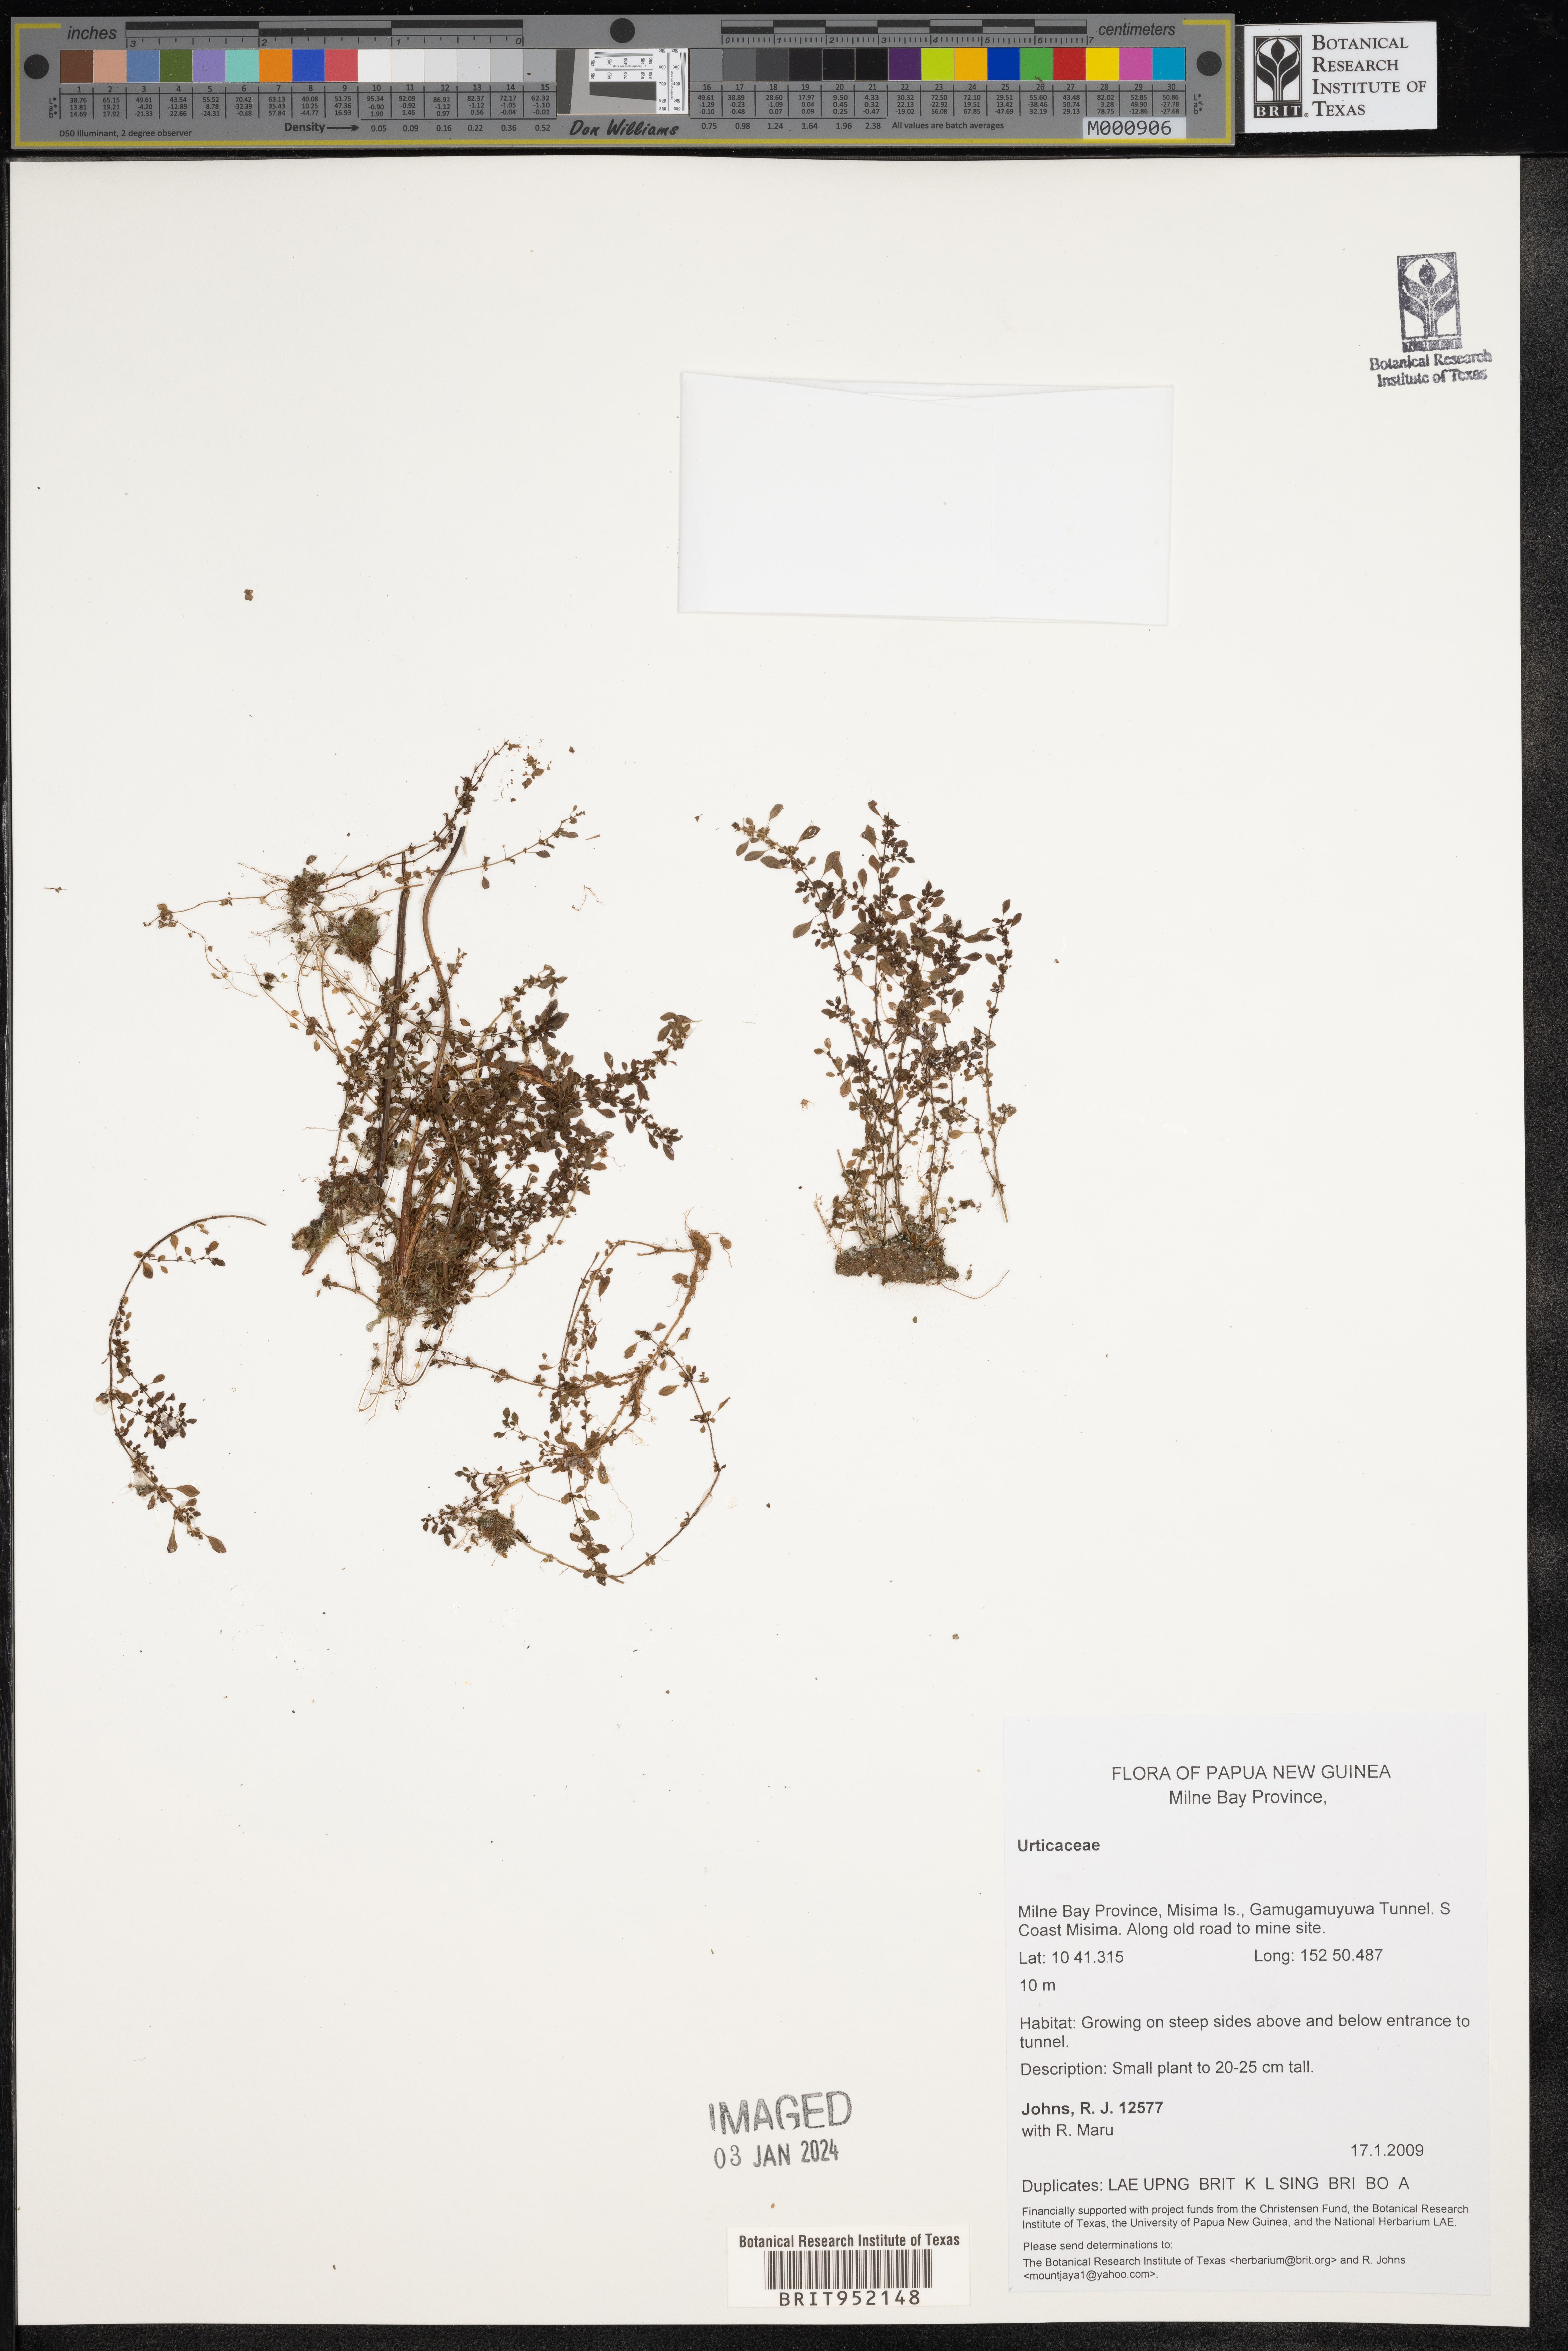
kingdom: Plantae
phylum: Tracheophyta
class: Magnoliopsida
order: Rosales
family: Urticaceae
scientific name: Urticaceae
